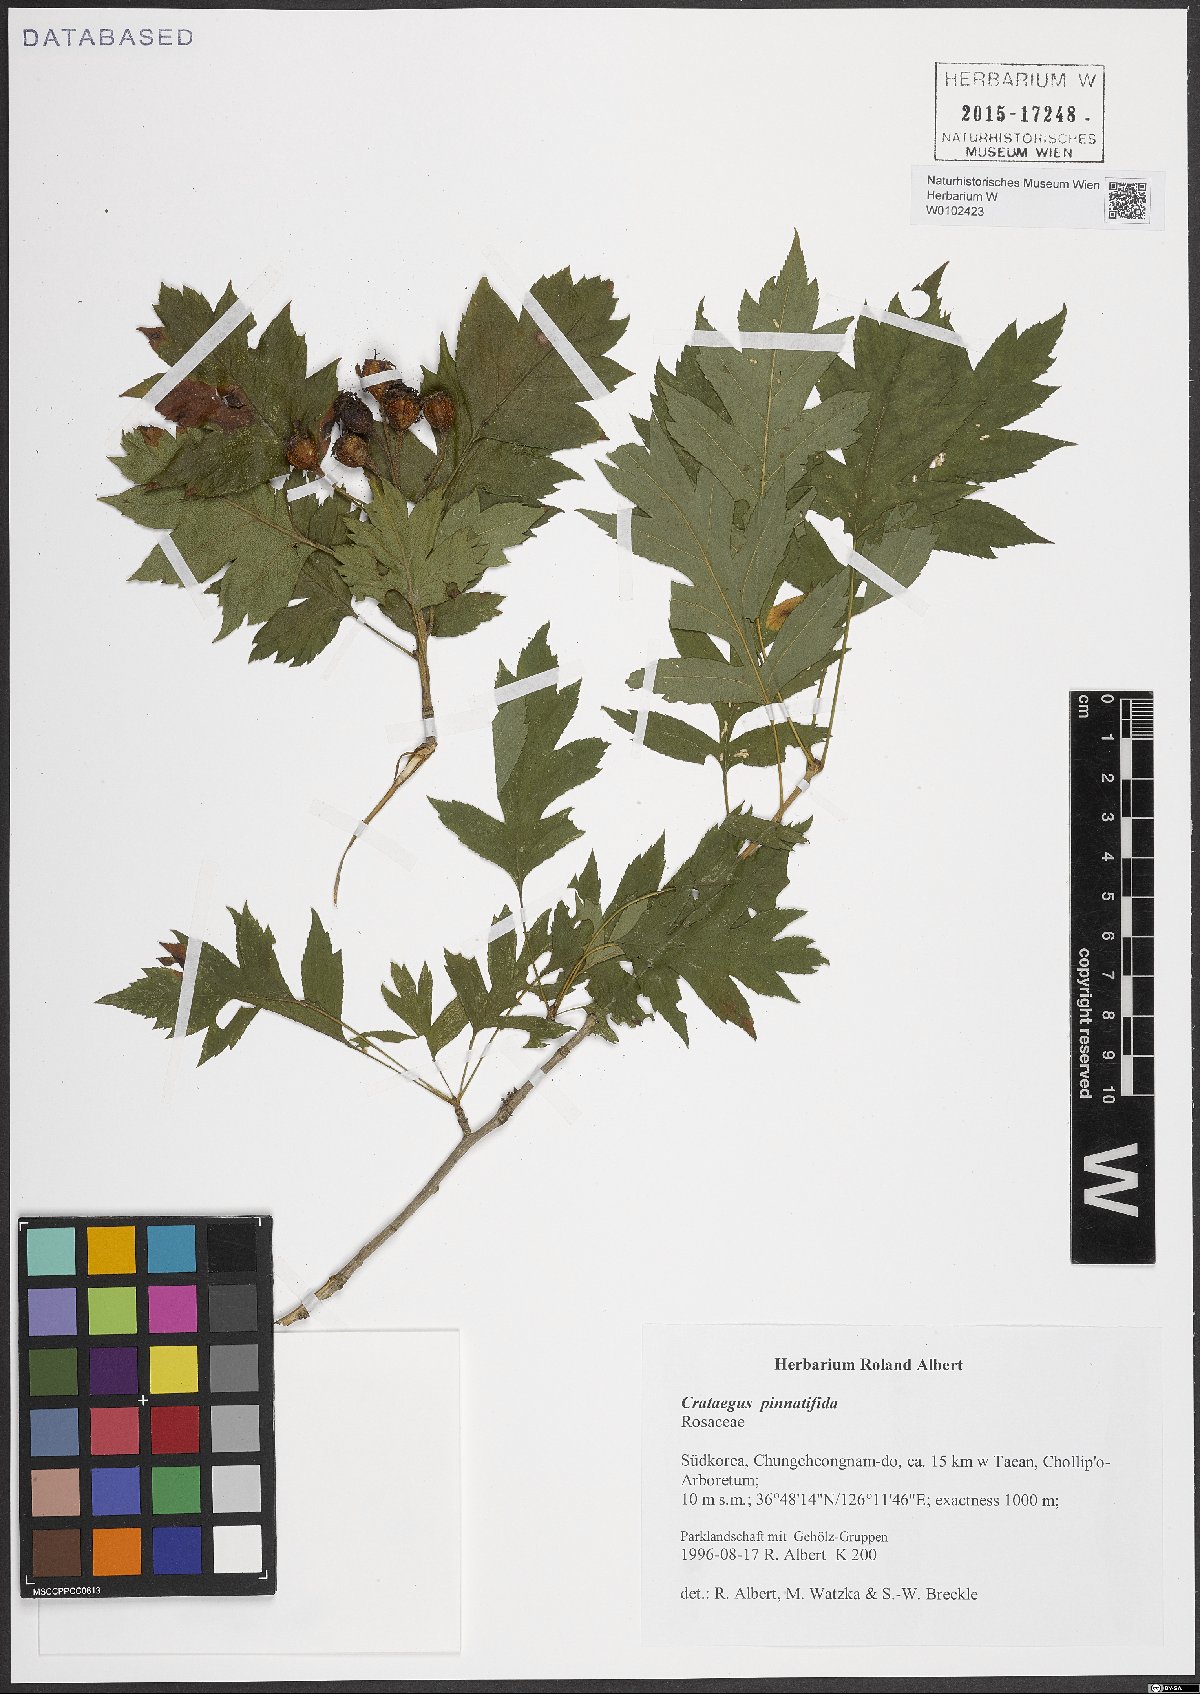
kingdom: Plantae
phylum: Tracheophyta
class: Magnoliopsida
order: Rosales
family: Rosaceae
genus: Crataegus
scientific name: Crataegus pinnatifida
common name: Chinese haw
